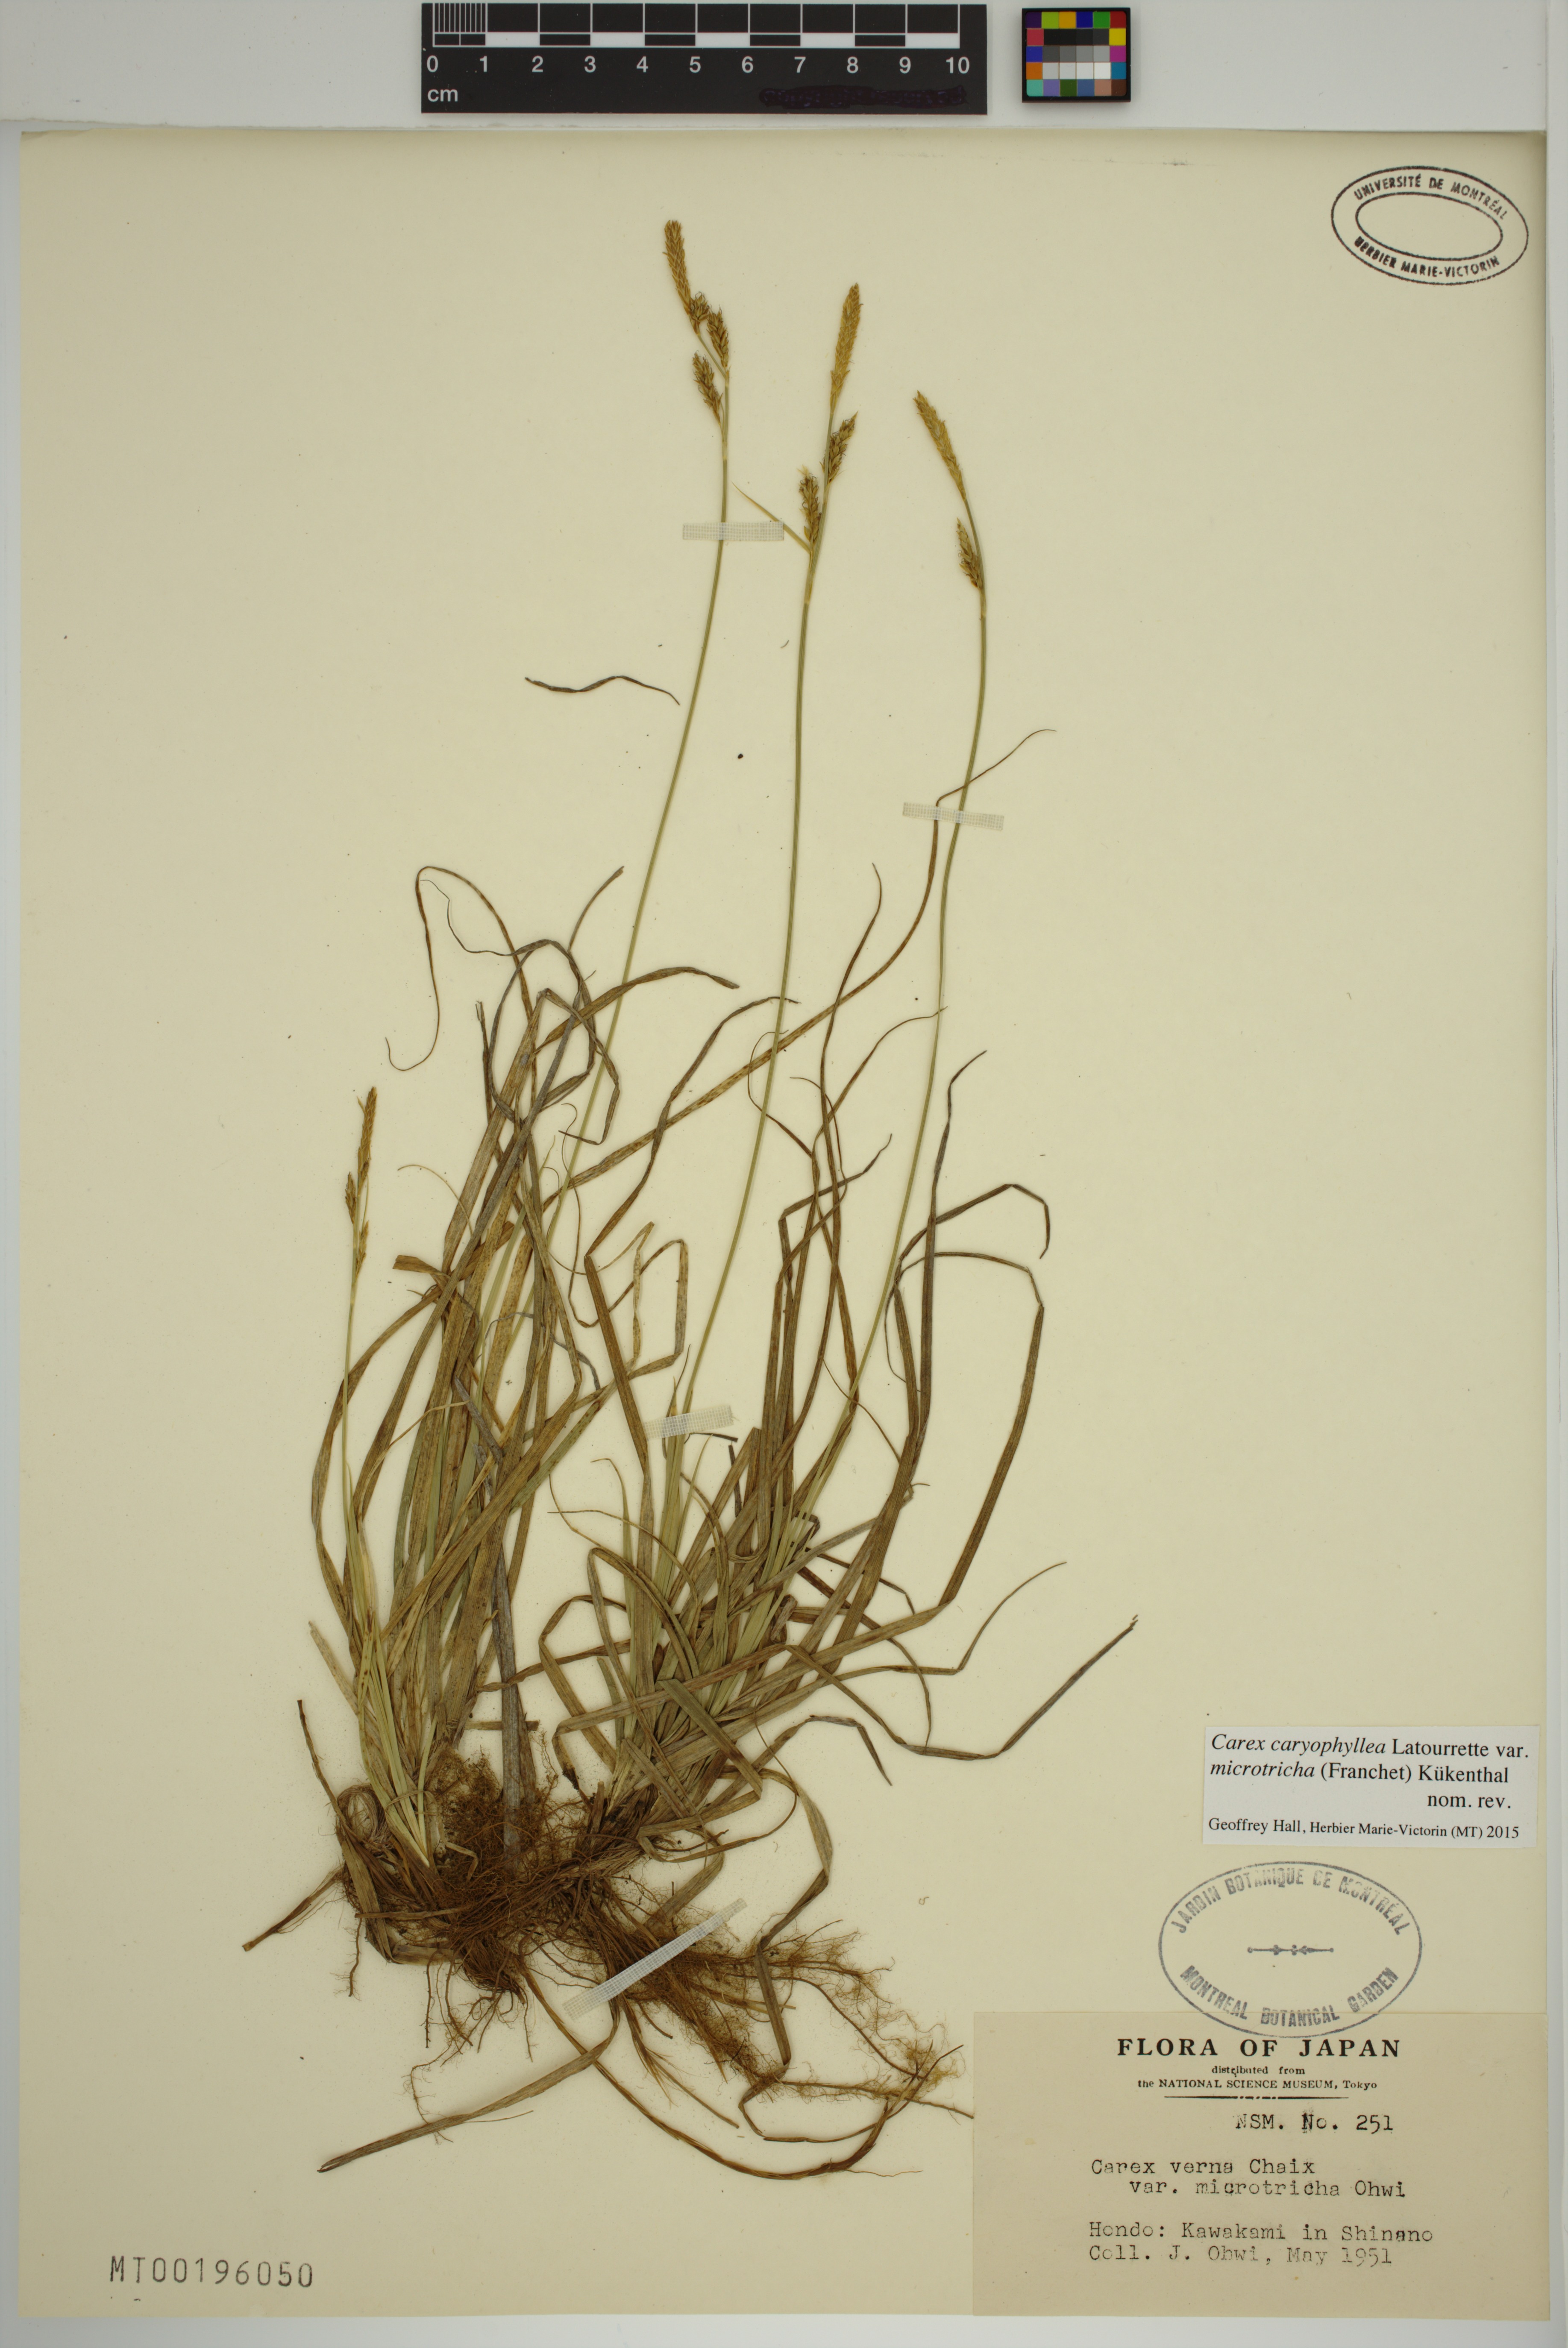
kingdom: Plantae
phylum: Tracheophyta
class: Liliopsida
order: Poales
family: Cyperaceae
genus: Carex
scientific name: Carex caryophyllea
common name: Spring sedge
